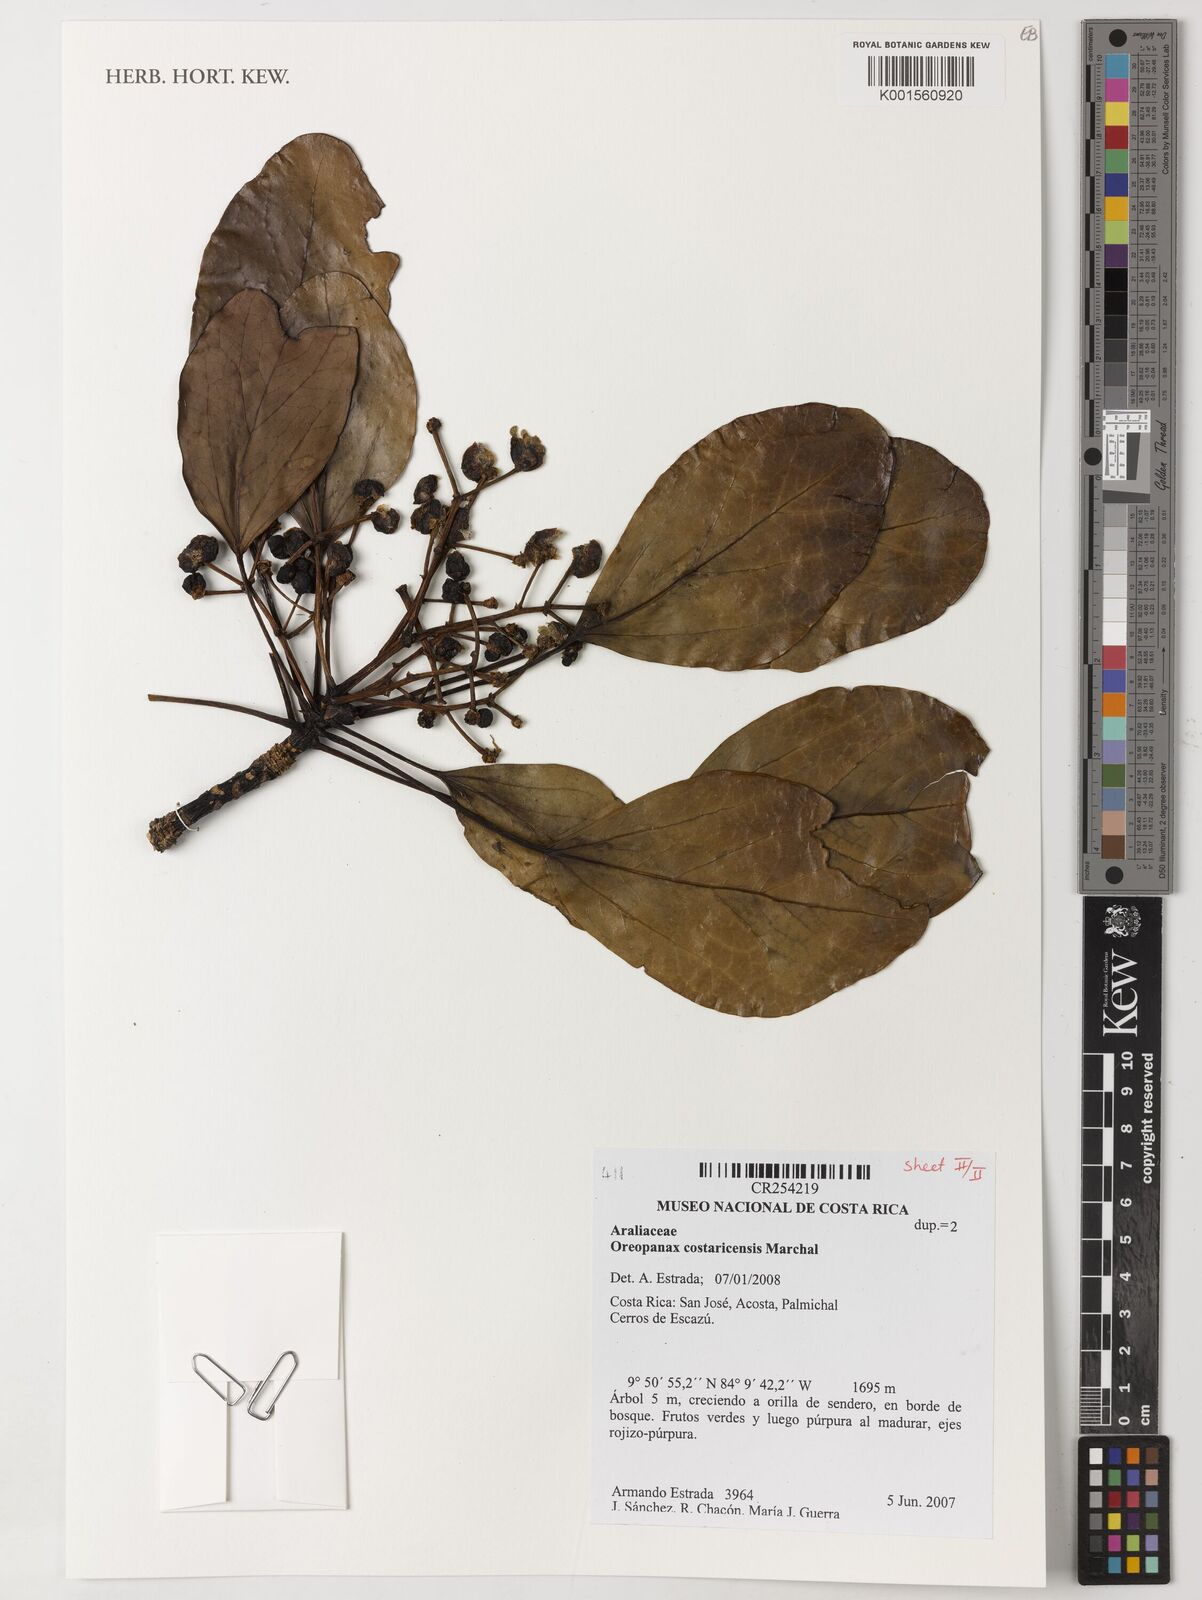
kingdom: Plantae
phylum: Tracheophyta
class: Magnoliopsida
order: Apiales
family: Araliaceae
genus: Oreopanax
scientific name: Oreopanax costaricensis
